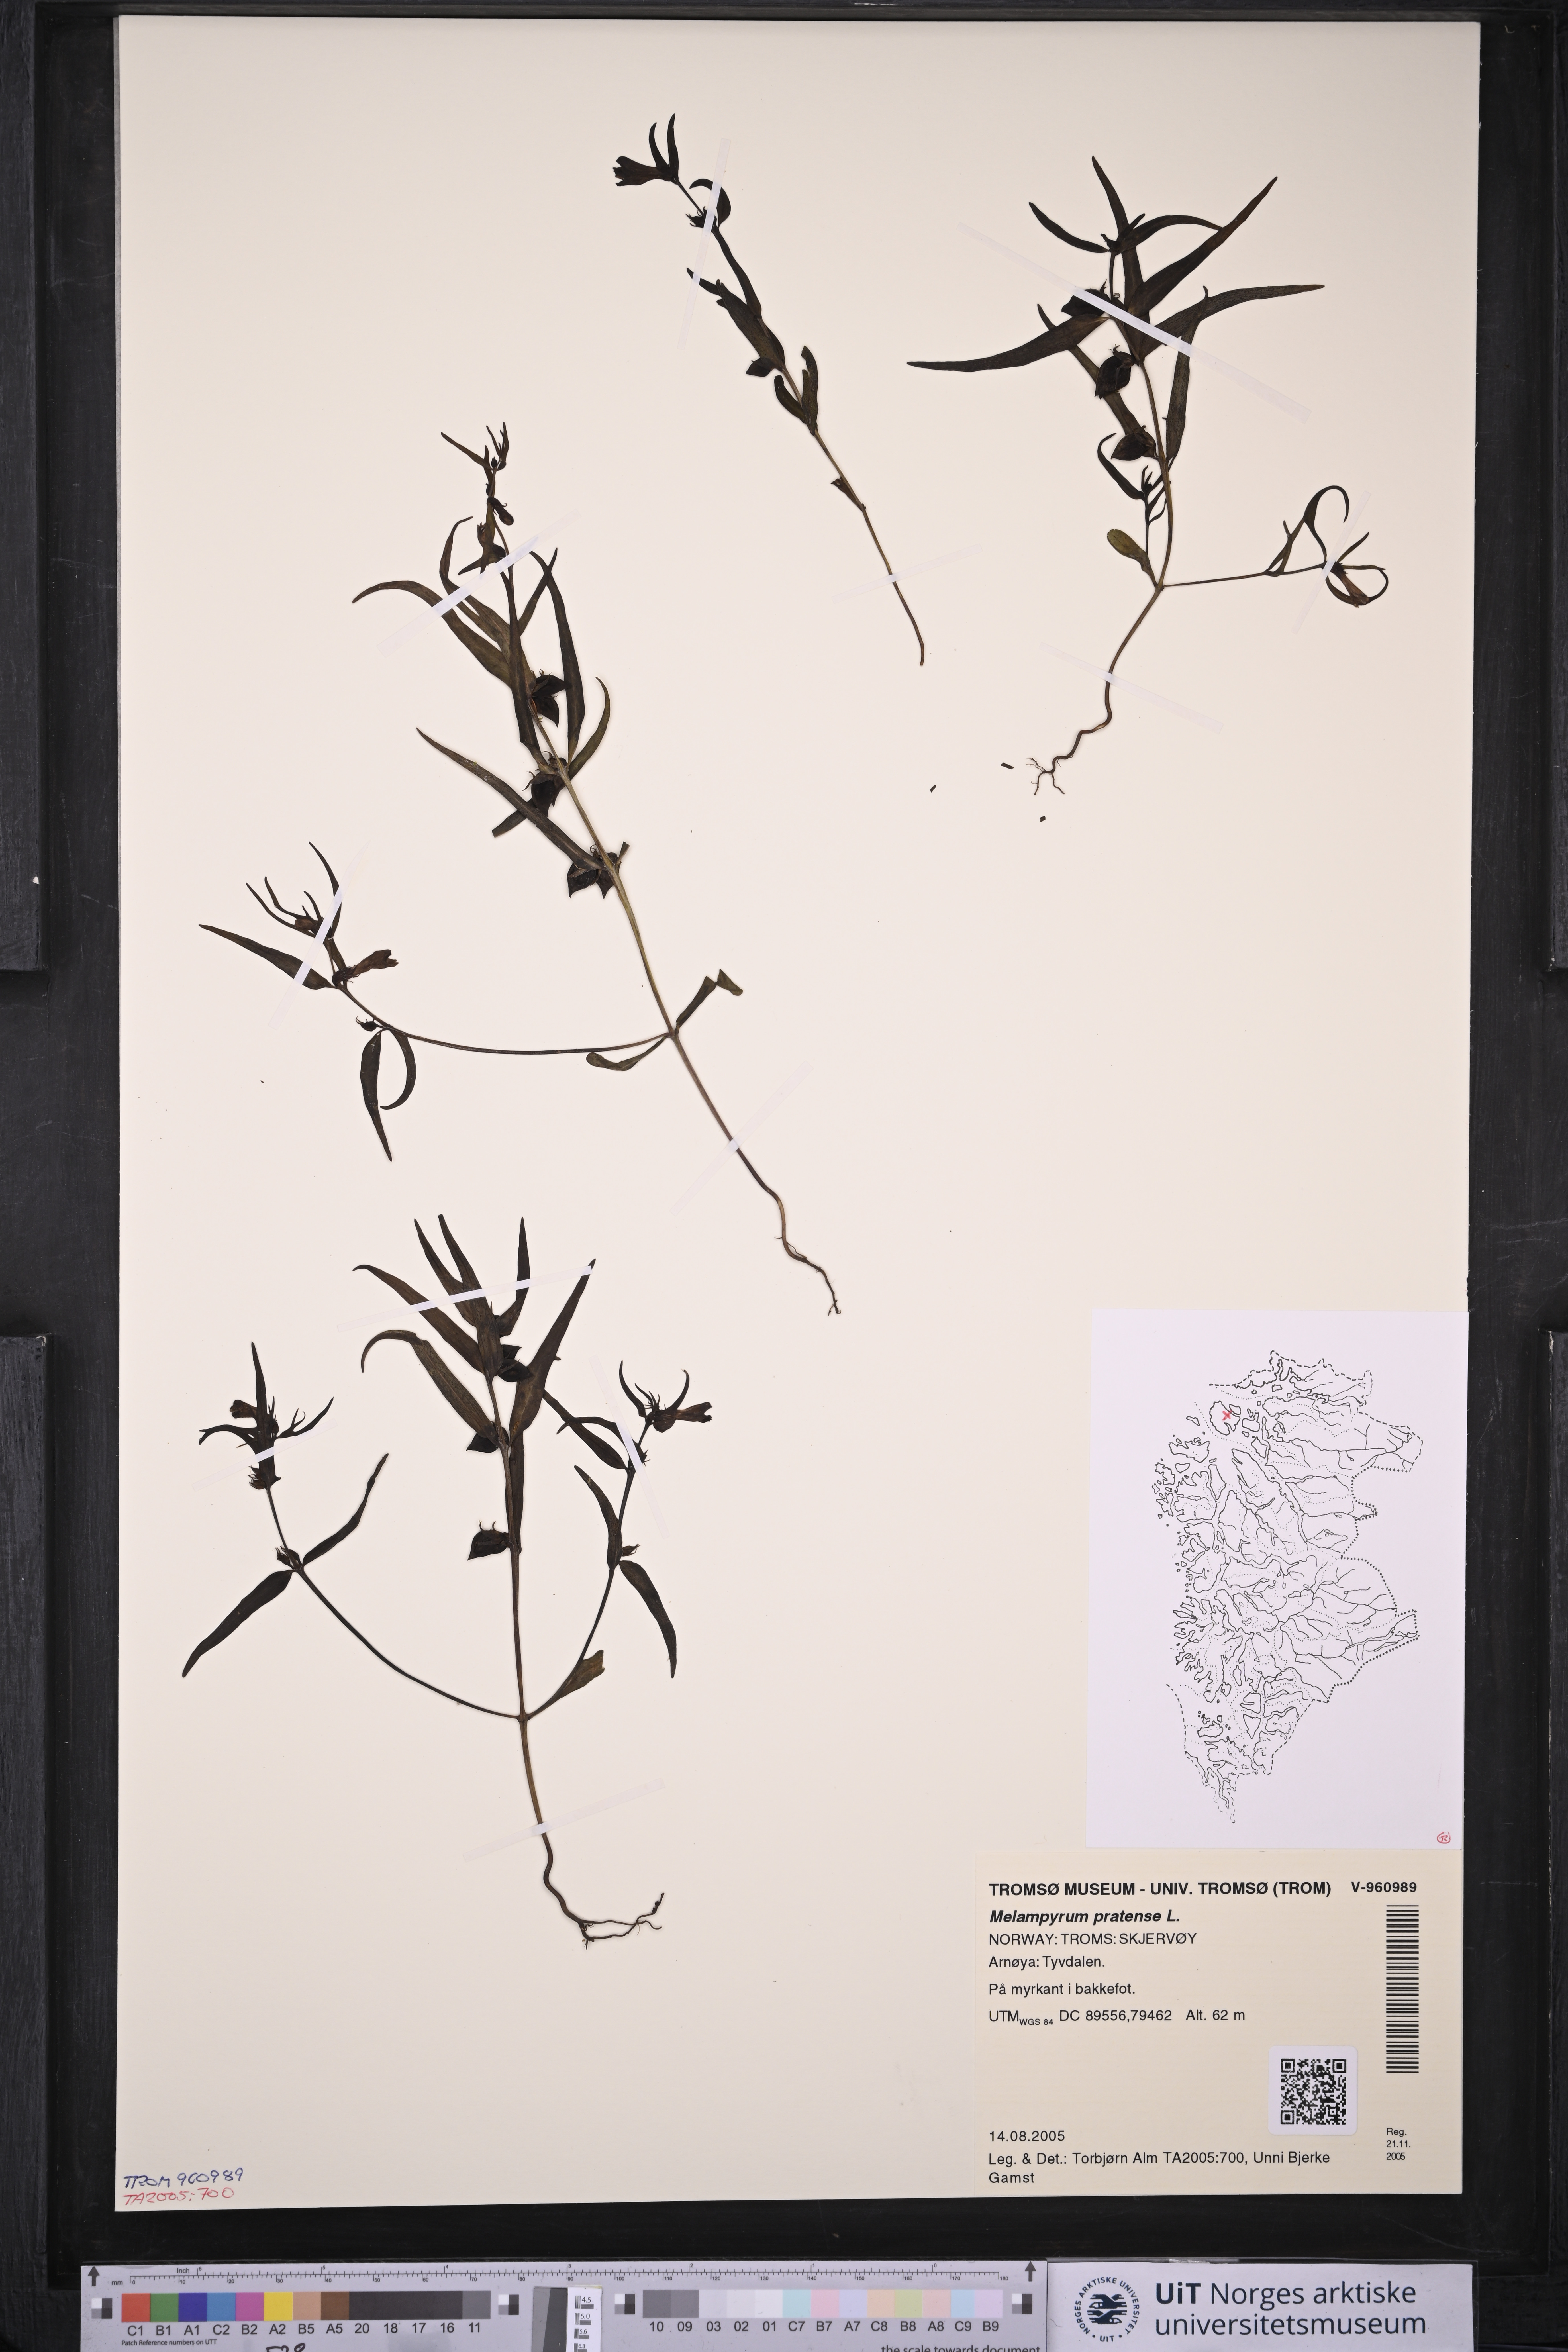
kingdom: Plantae
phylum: Tracheophyta
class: Magnoliopsida
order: Lamiales
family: Orobanchaceae
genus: Melampyrum
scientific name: Melampyrum pratense
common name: Common cow-wheat
